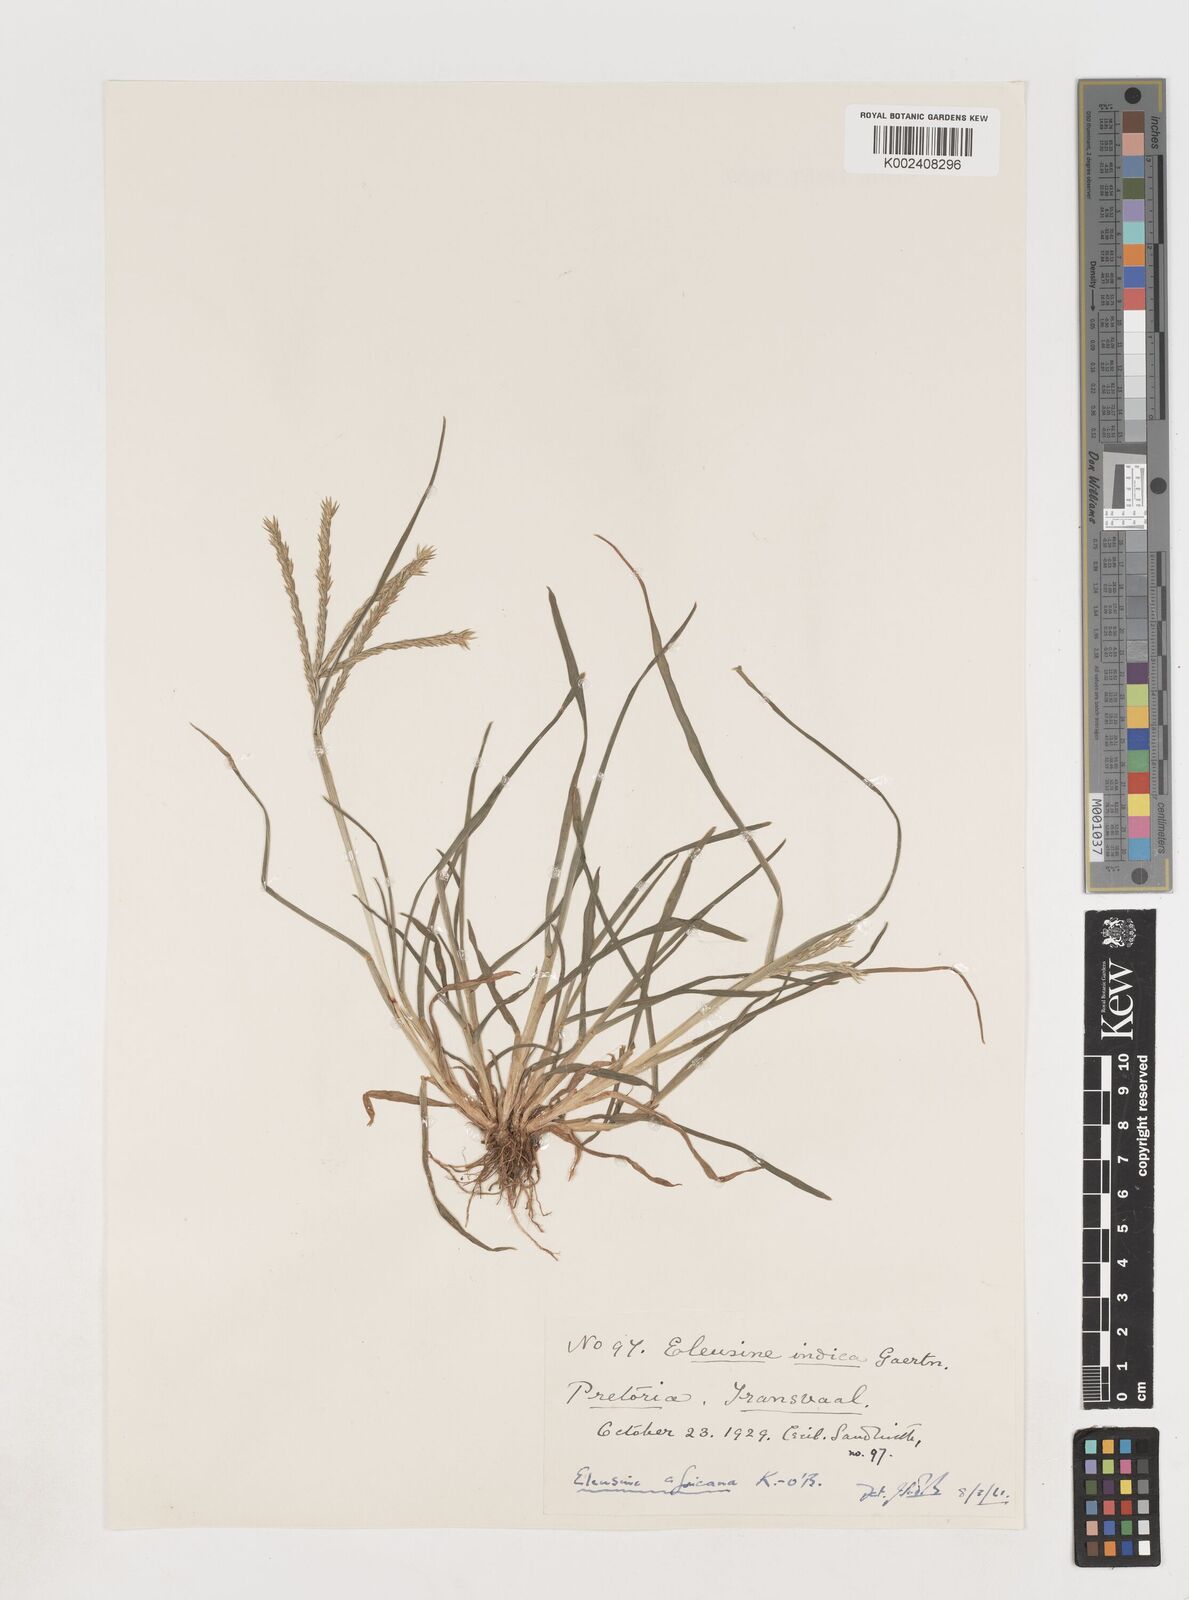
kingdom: Plantae
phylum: Tracheophyta
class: Liliopsida
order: Poales
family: Poaceae
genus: Eleusine
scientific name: Eleusine africana
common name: Wild african finger millet
